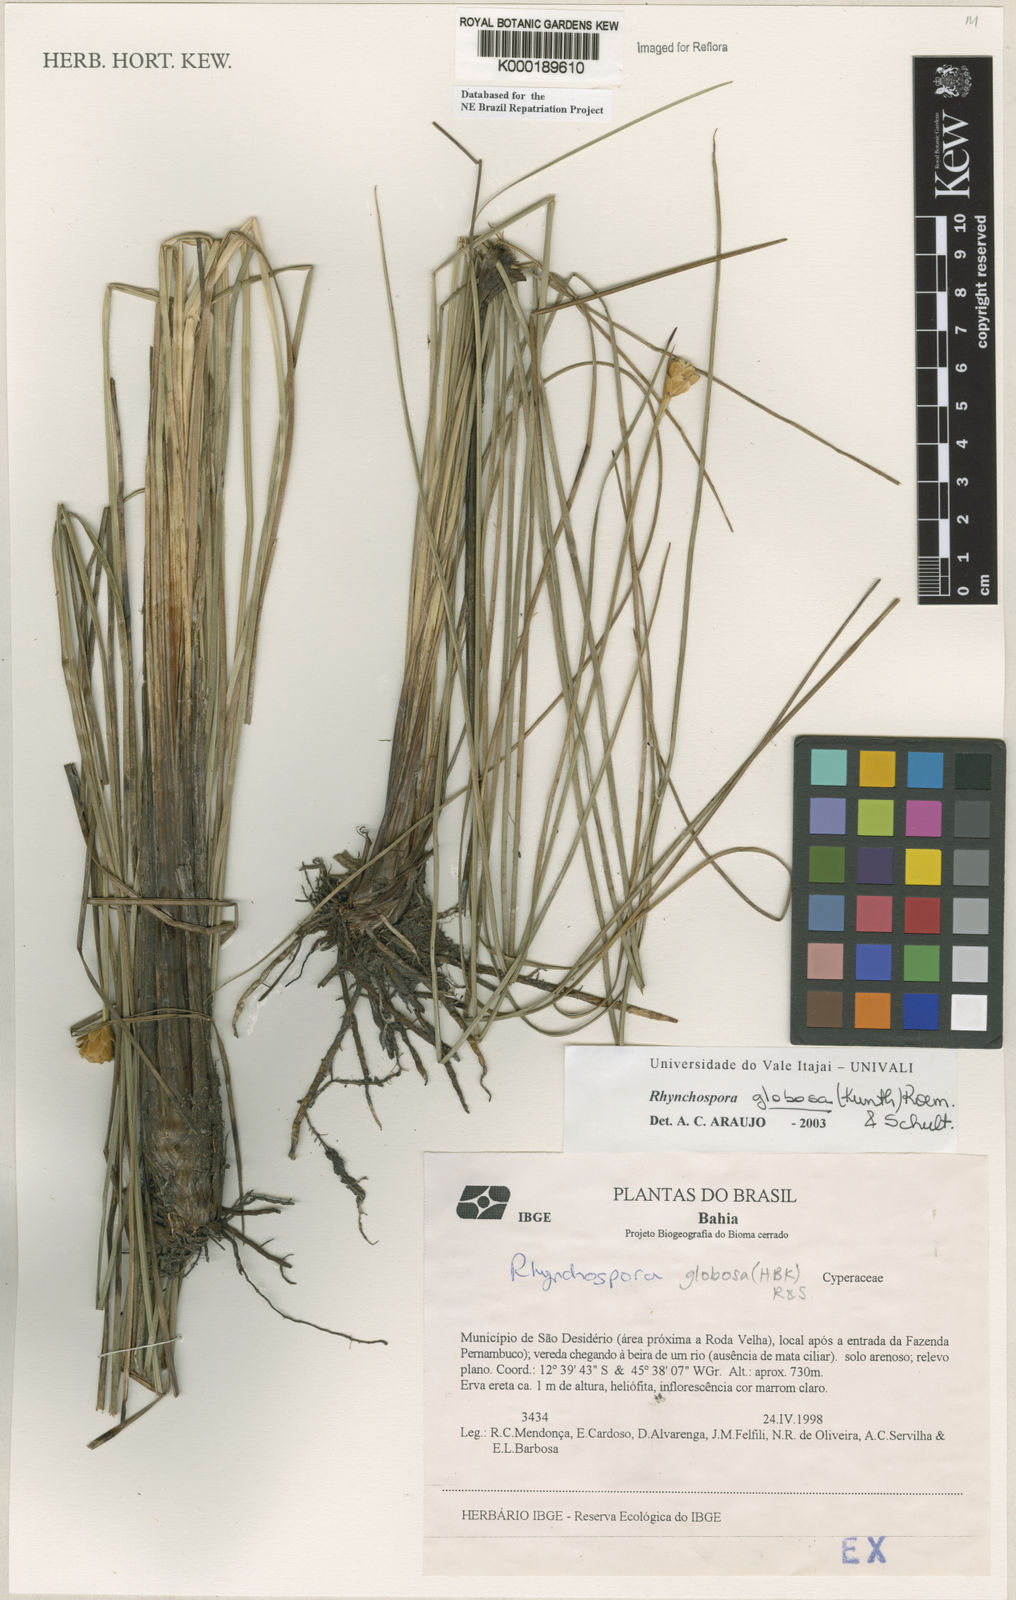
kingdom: Plantae
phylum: Tracheophyta
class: Liliopsida
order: Poales
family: Cyperaceae
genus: Rhynchospora
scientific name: Rhynchospora globosa
